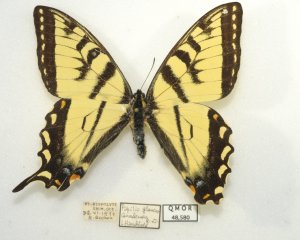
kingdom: Animalia
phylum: Arthropoda
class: Insecta
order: Lepidoptera
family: Papilionidae
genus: Pterourus
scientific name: Pterourus canadensis
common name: Canadian Tiger Swallowtail
